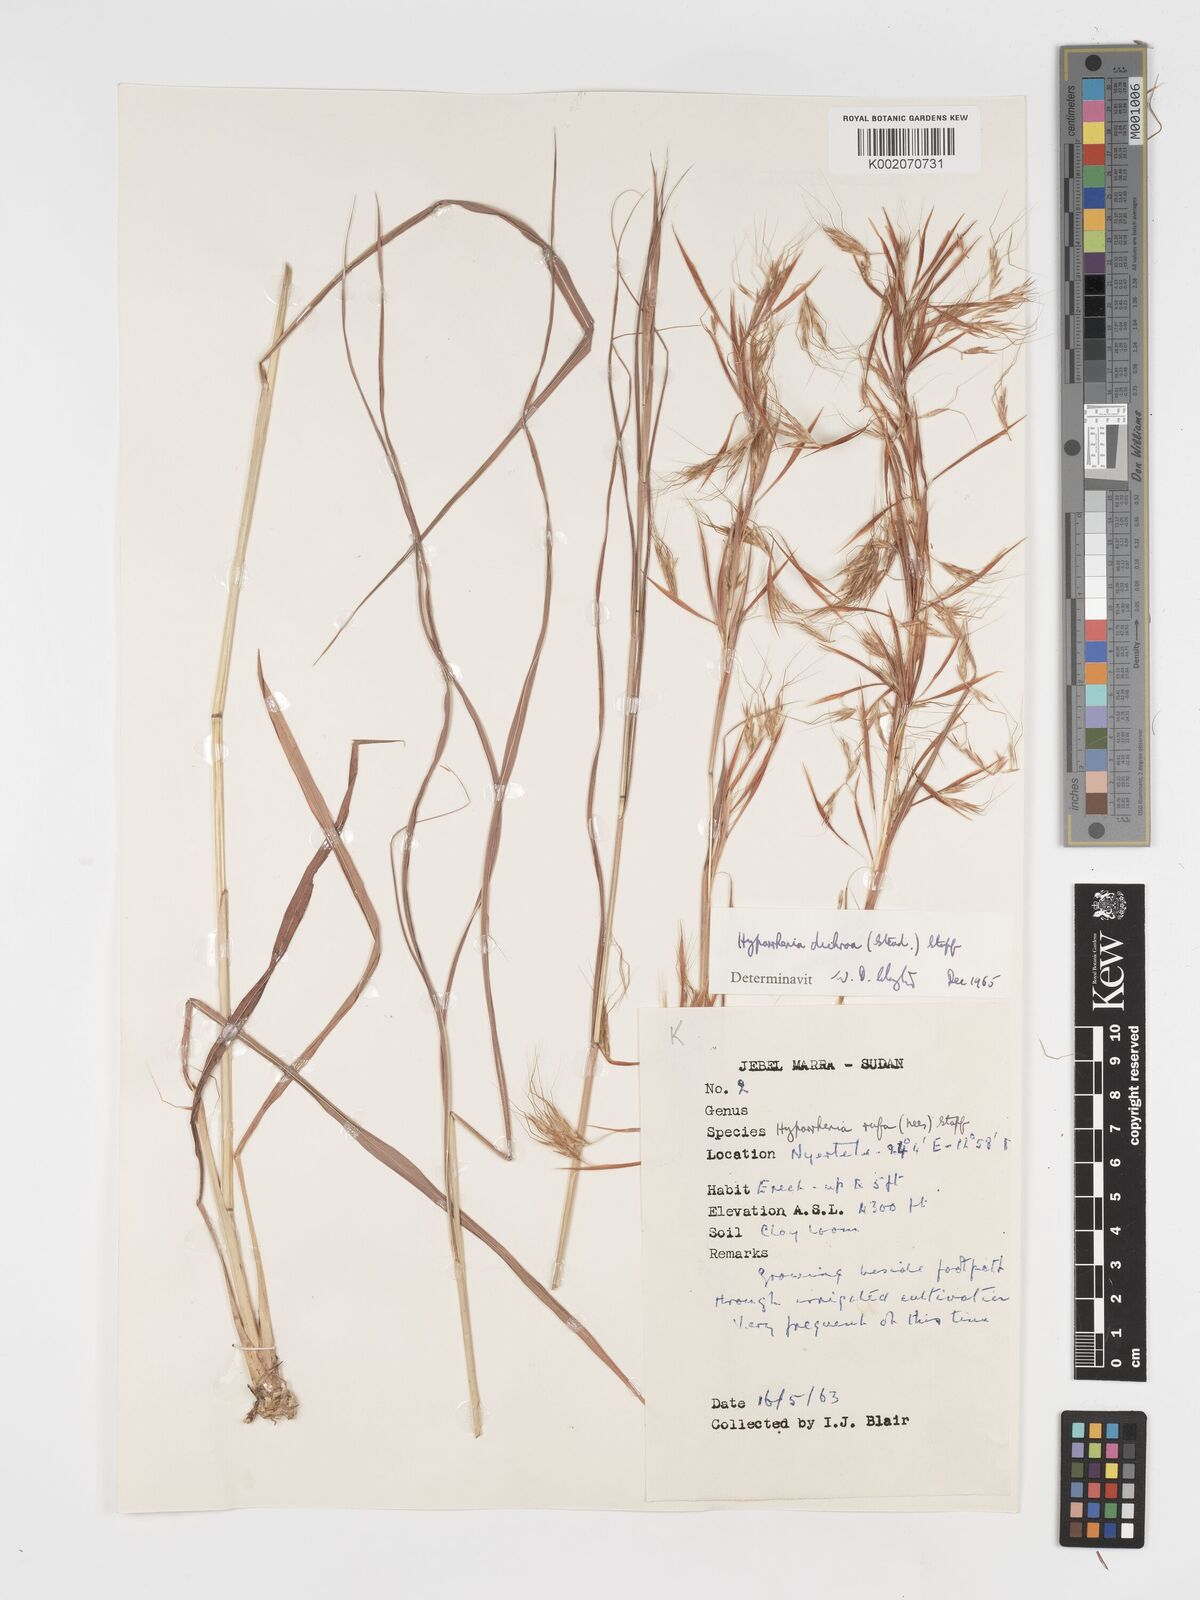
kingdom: Plantae
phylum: Tracheophyta
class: Liliopsida
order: Poales
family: Poaceae
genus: Hyparrhenia
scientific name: Hyparrhenia dichroa
